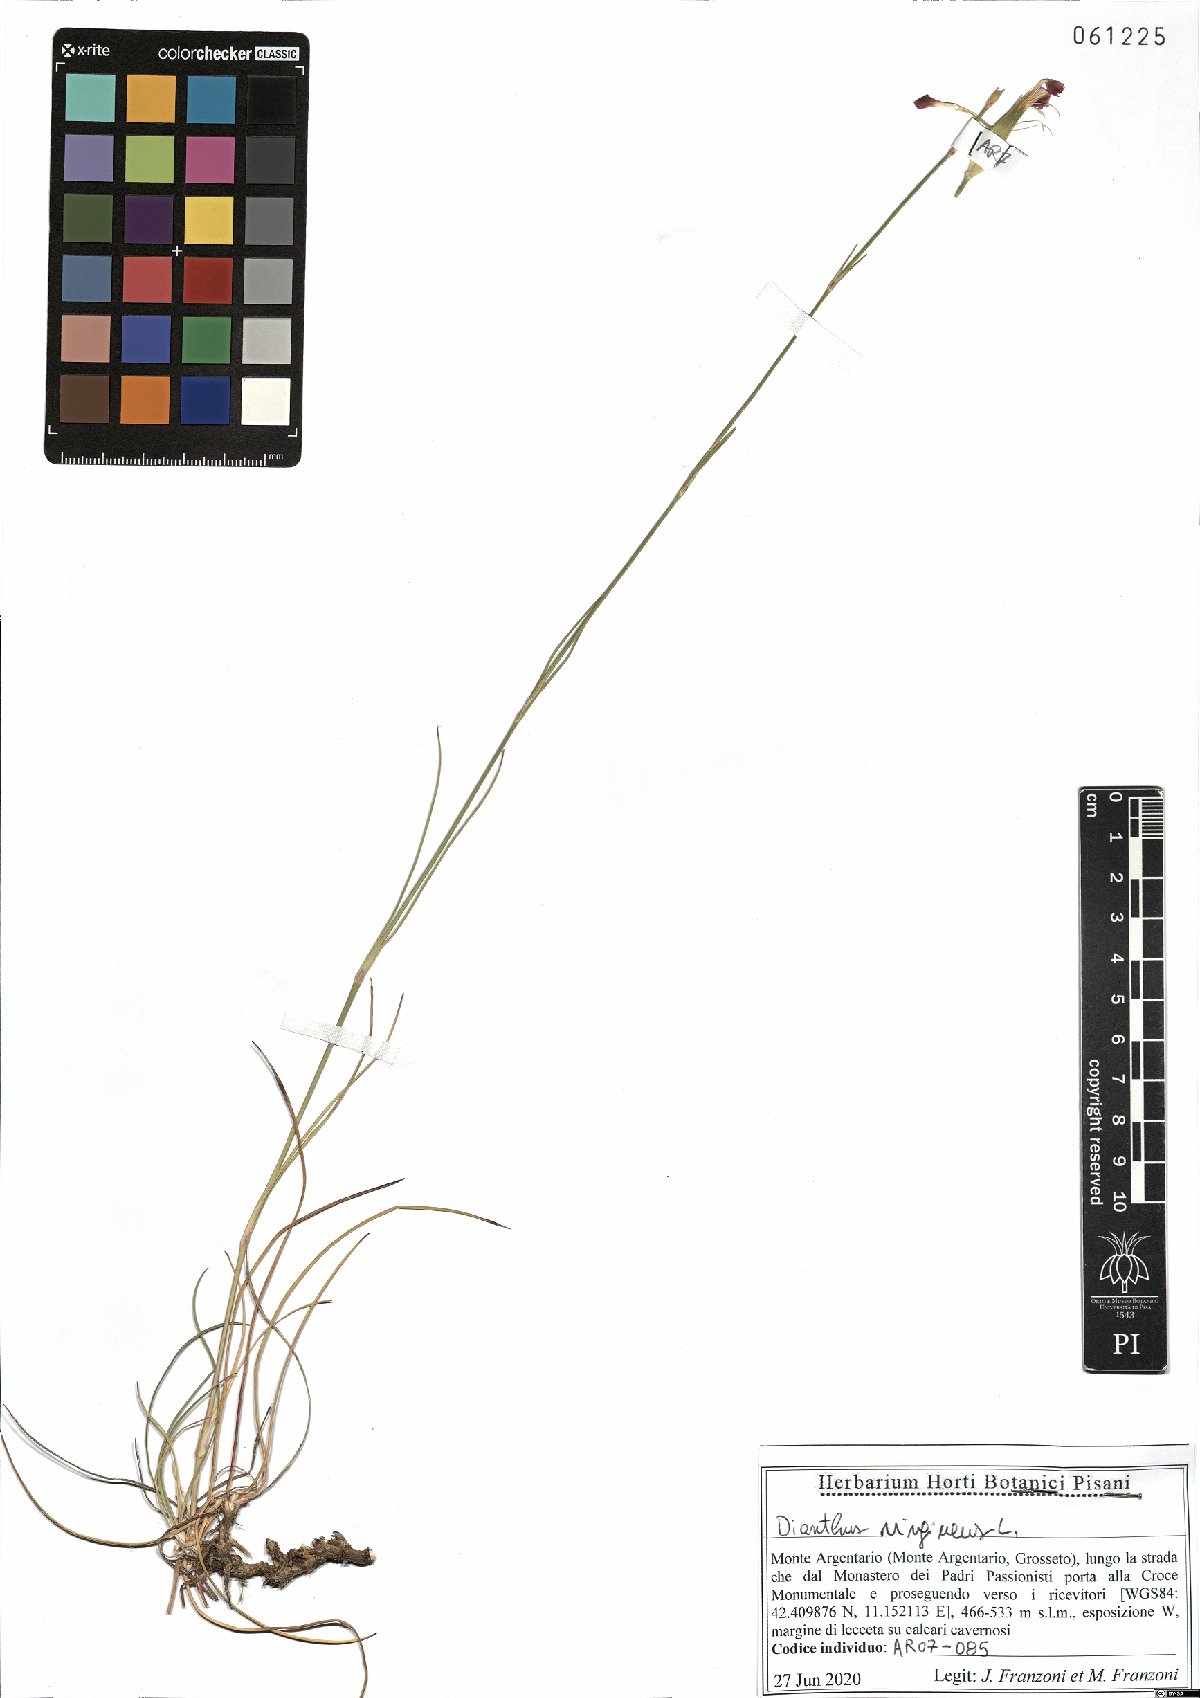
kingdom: Plantae
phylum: Tracheophyta
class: Magnoliopsida
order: Caryophyllales
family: Caryophyllaceae
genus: Dianthus
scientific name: Dianthus virgineus
